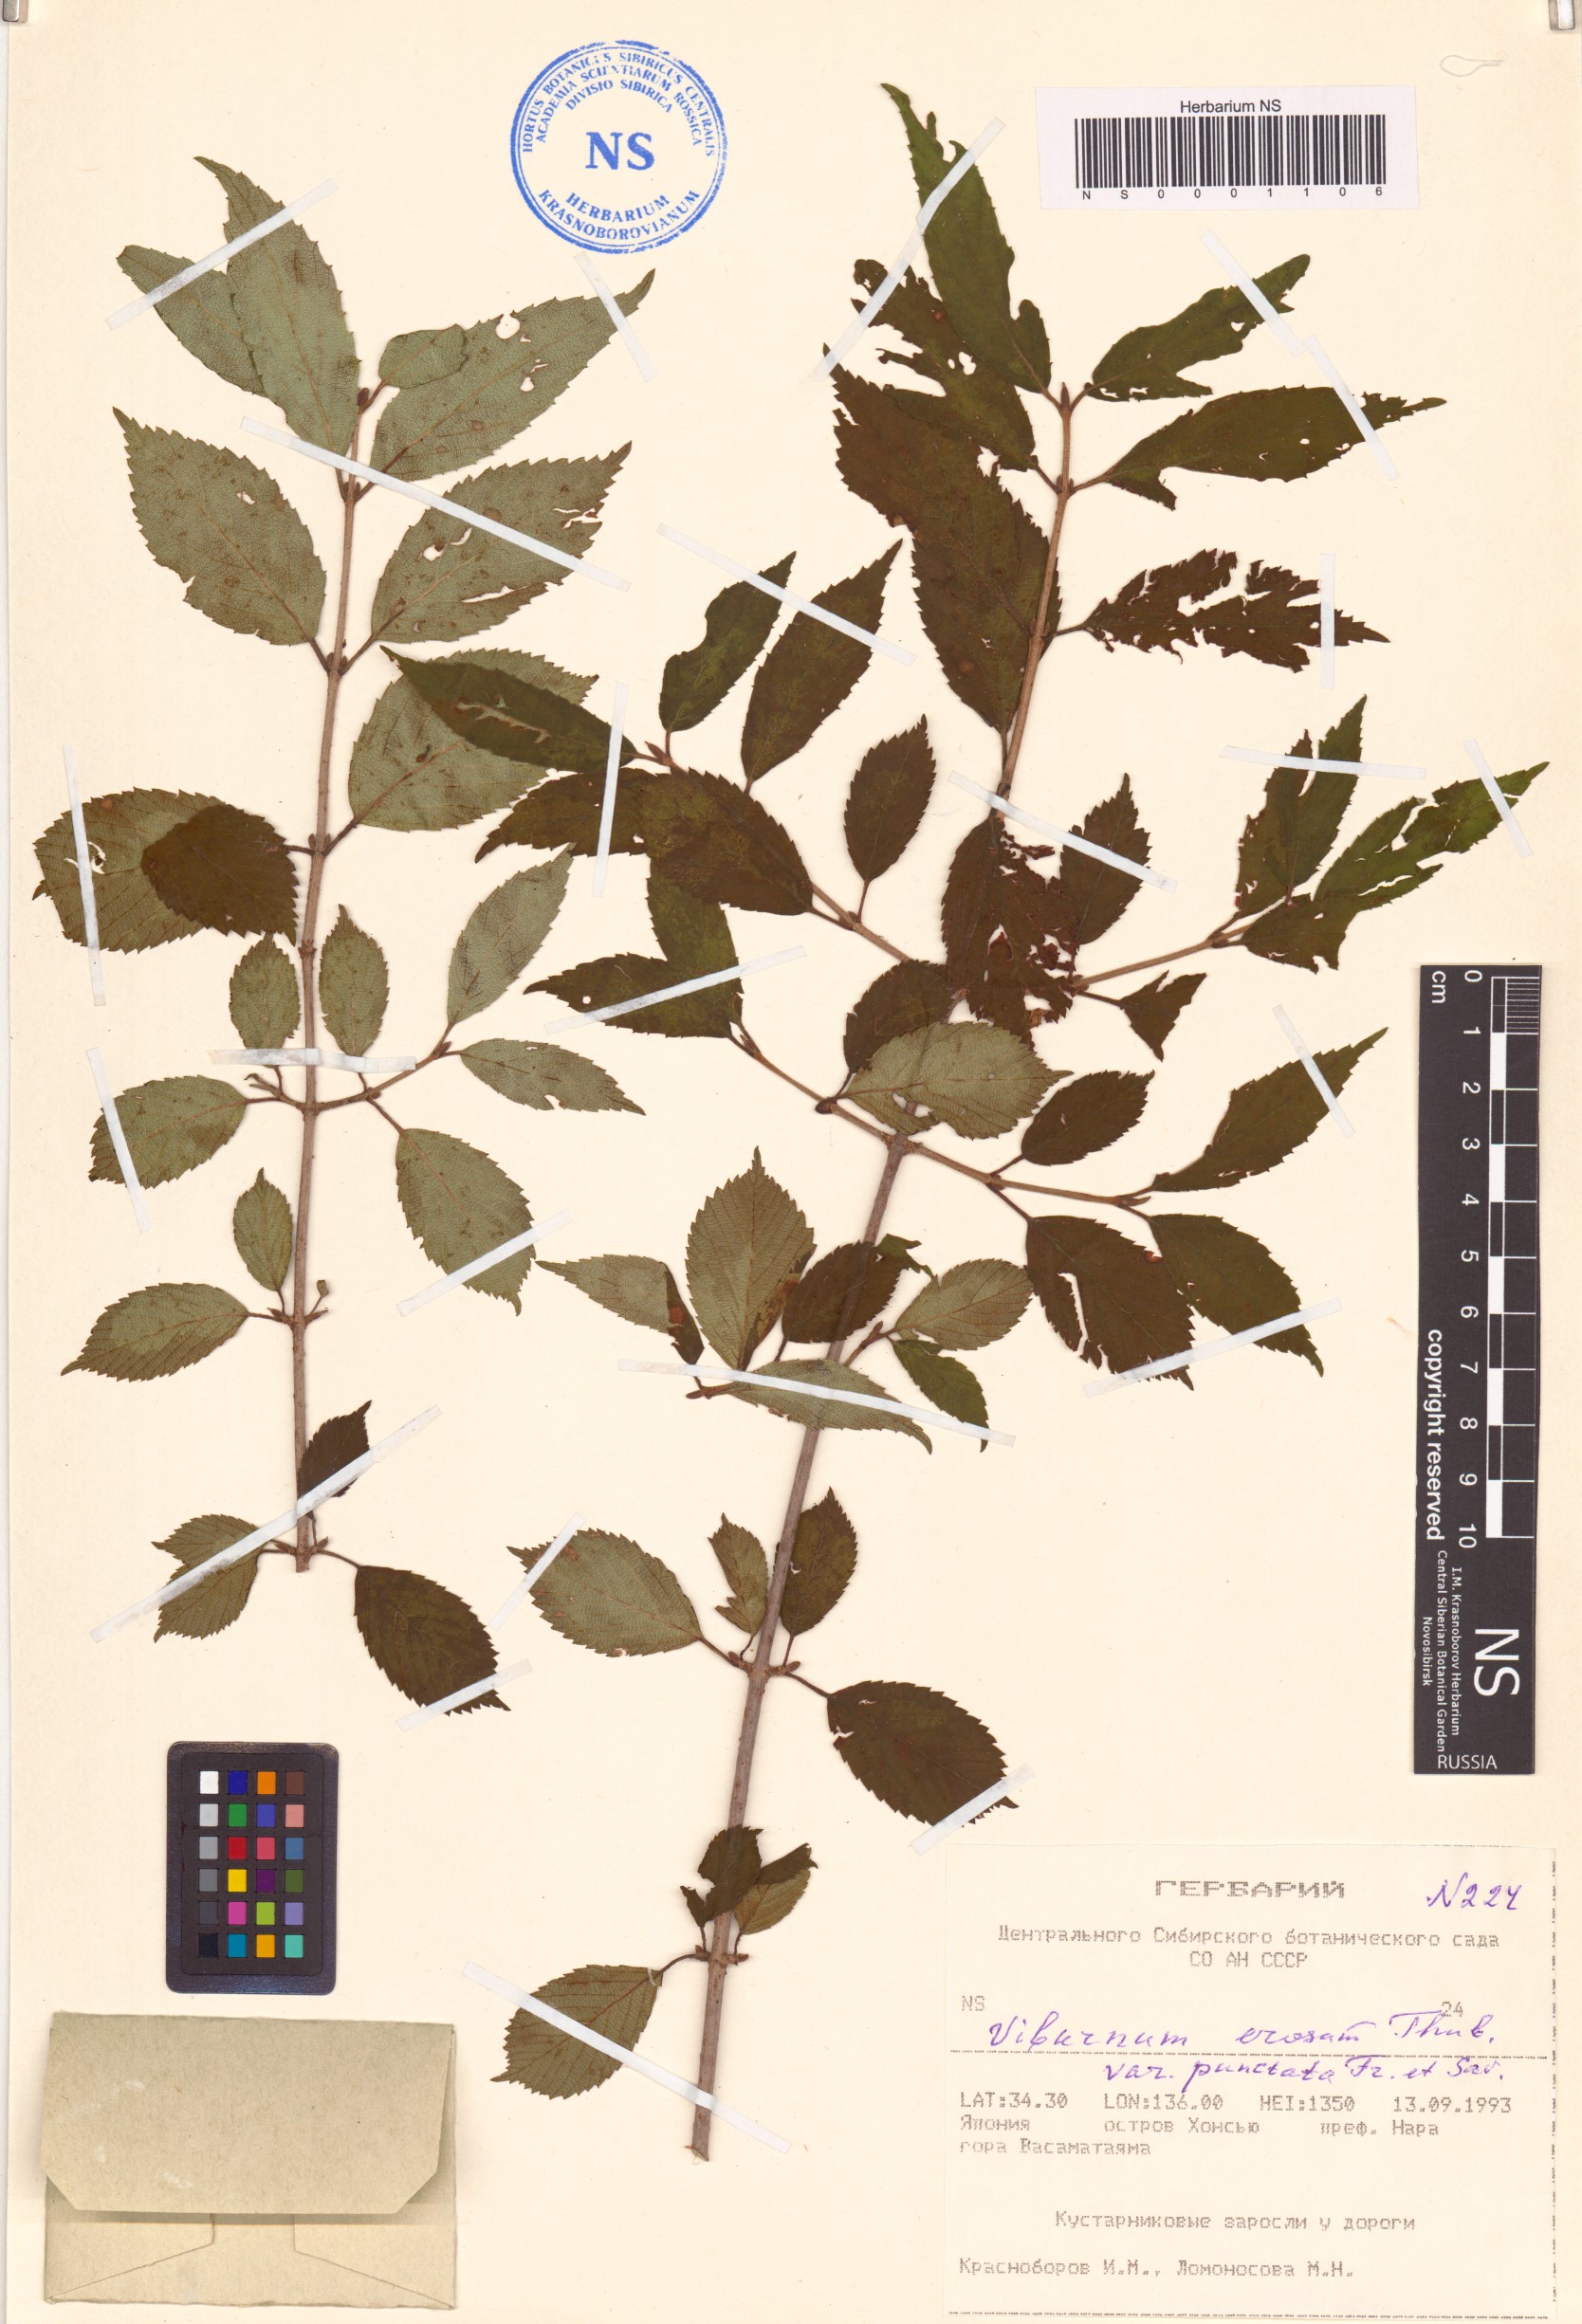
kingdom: Plantae
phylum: Tracheophyta
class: Magnoliopsida
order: Dipsacales
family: Viburnaceae
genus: Viburnum
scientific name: Viburnum erosum
